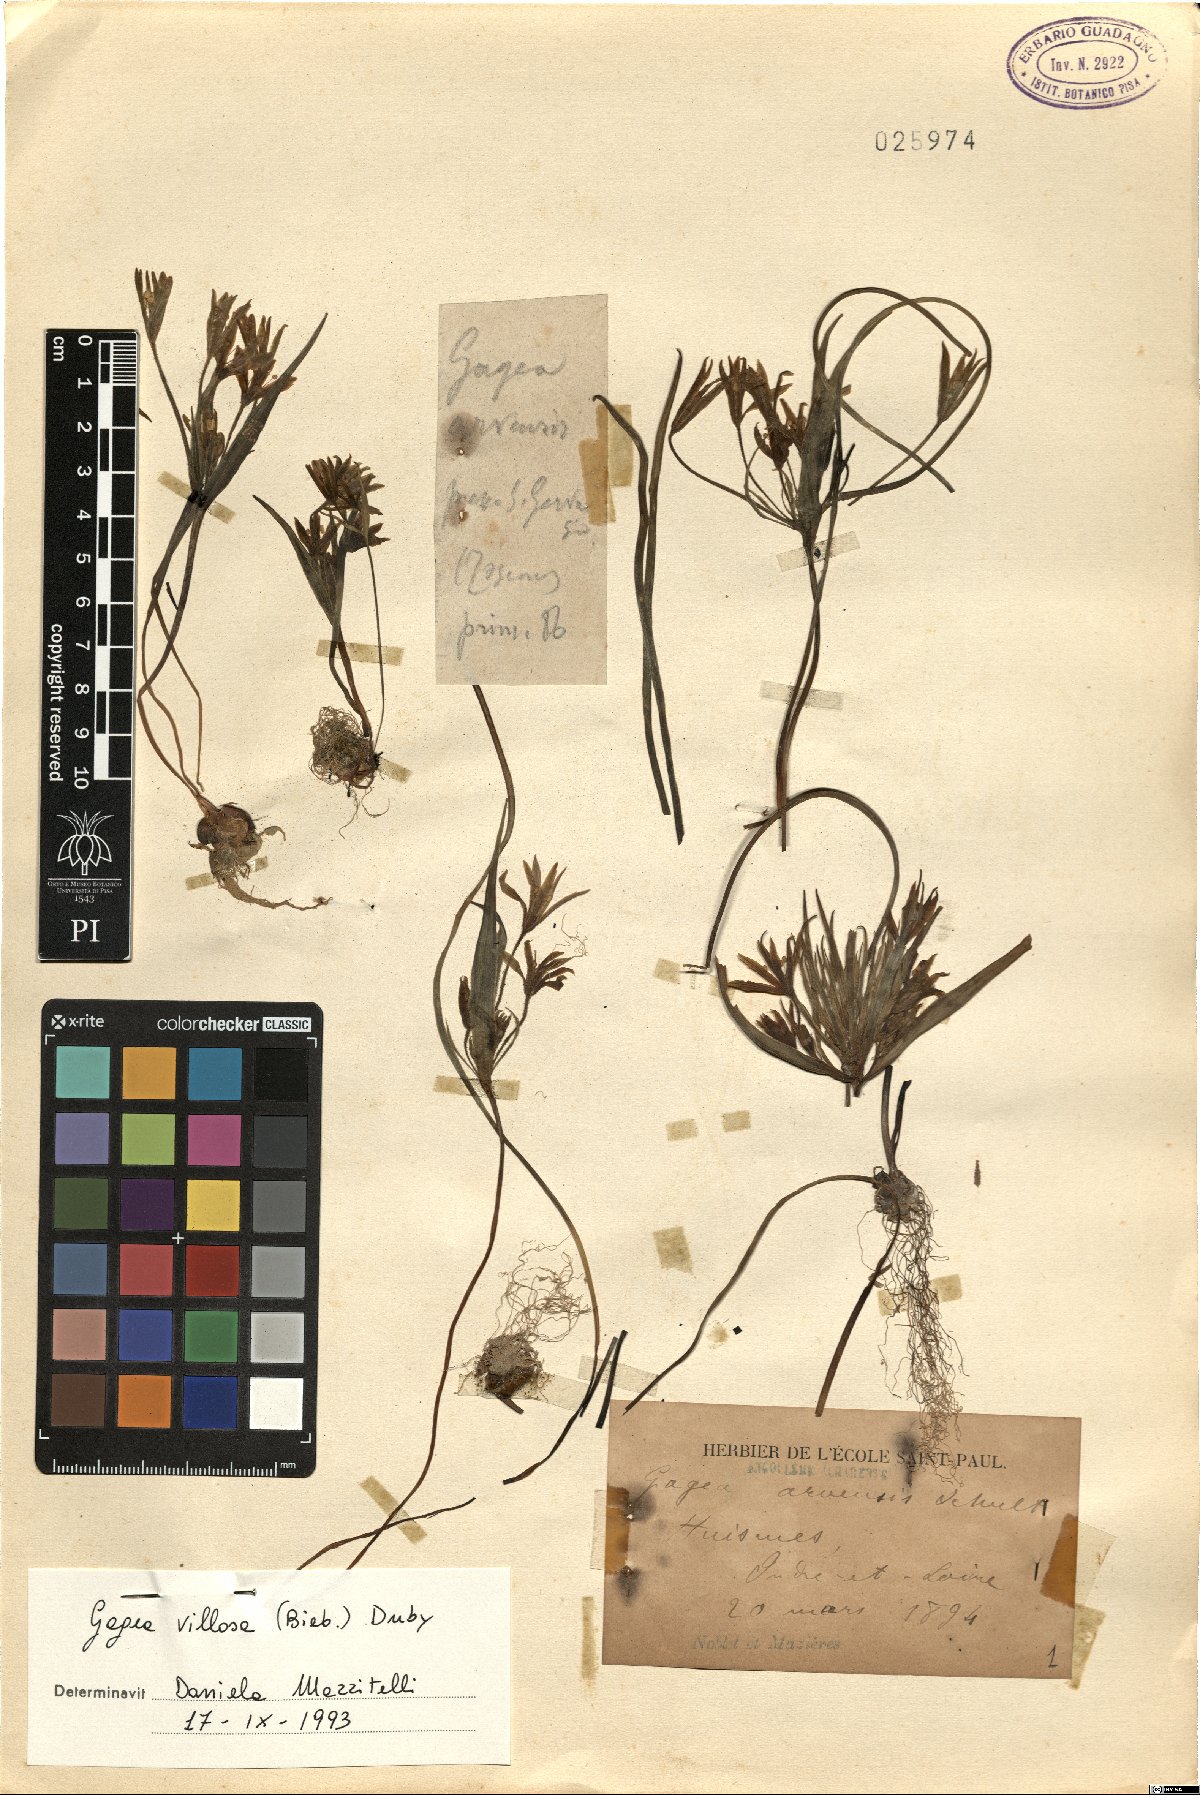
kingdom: Plantae
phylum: Tracheophyta
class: Liliopsida
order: Liliales
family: Liliaceae
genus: Gagea
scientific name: Gagea villosa
